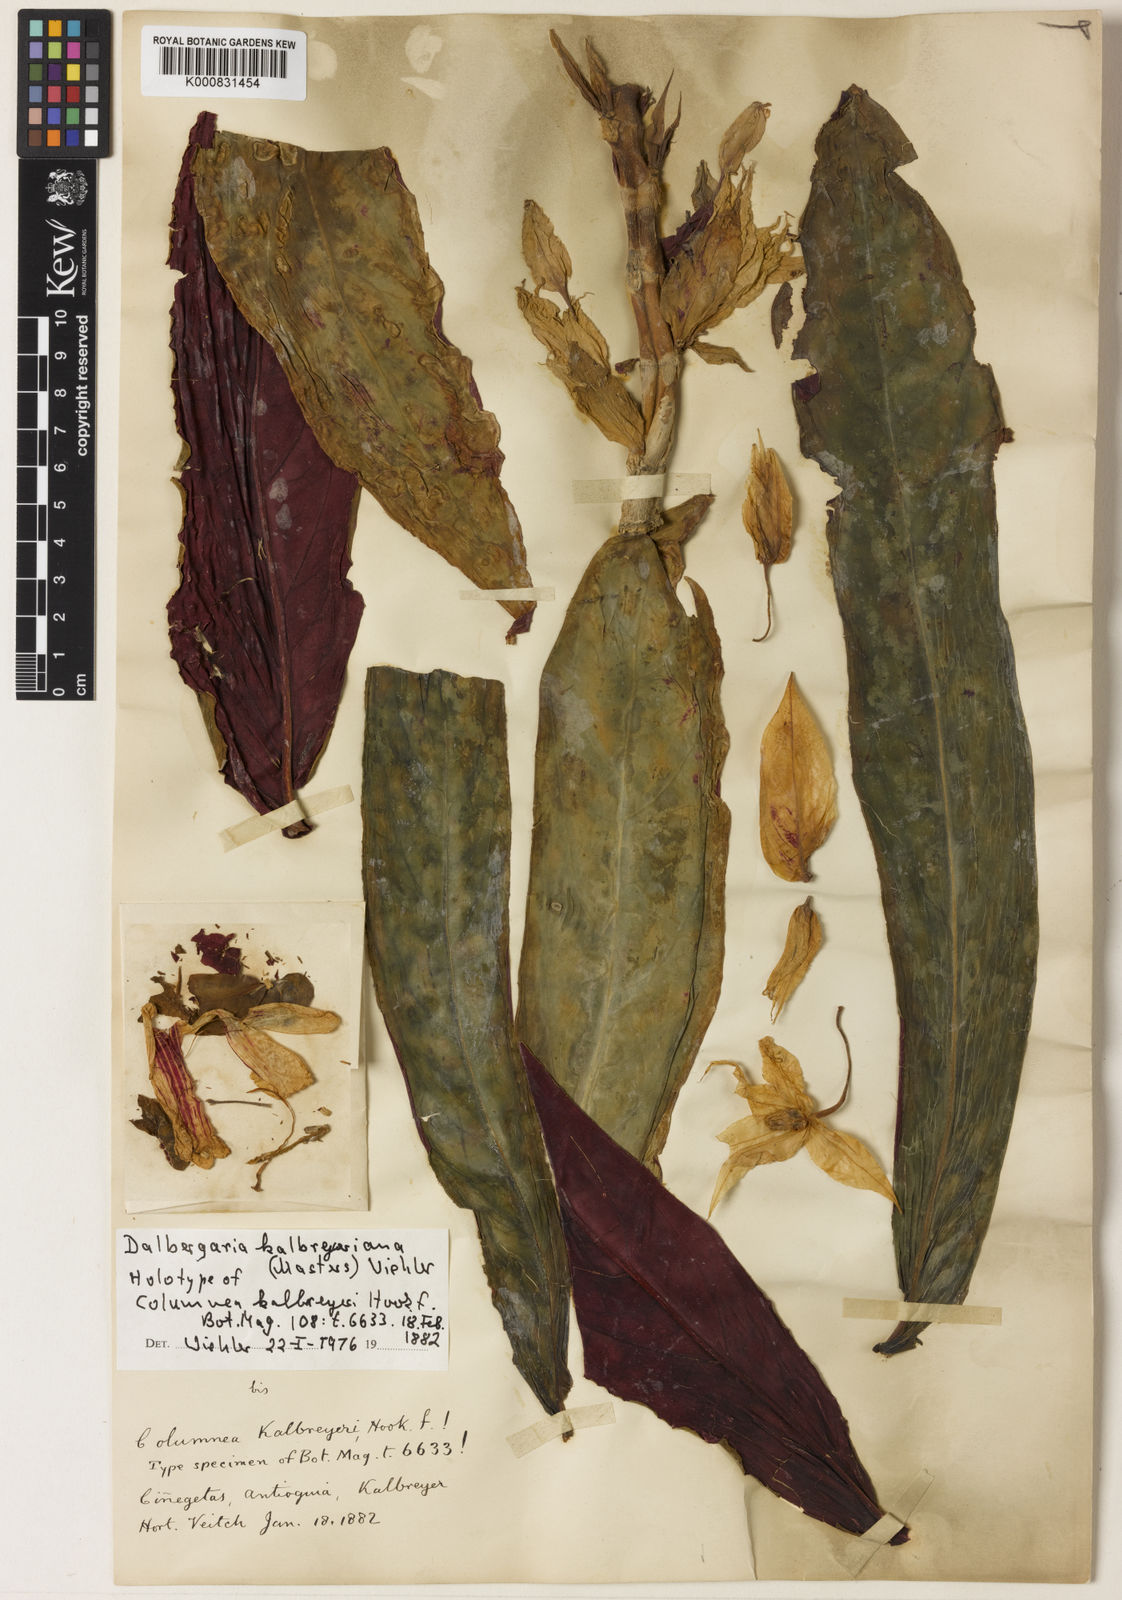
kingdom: Plantae
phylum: Tracheophyta
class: Magnoliopsida
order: Lamiales
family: Gesneriaceae
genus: Columnea
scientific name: Columnea kalbreyeriana
